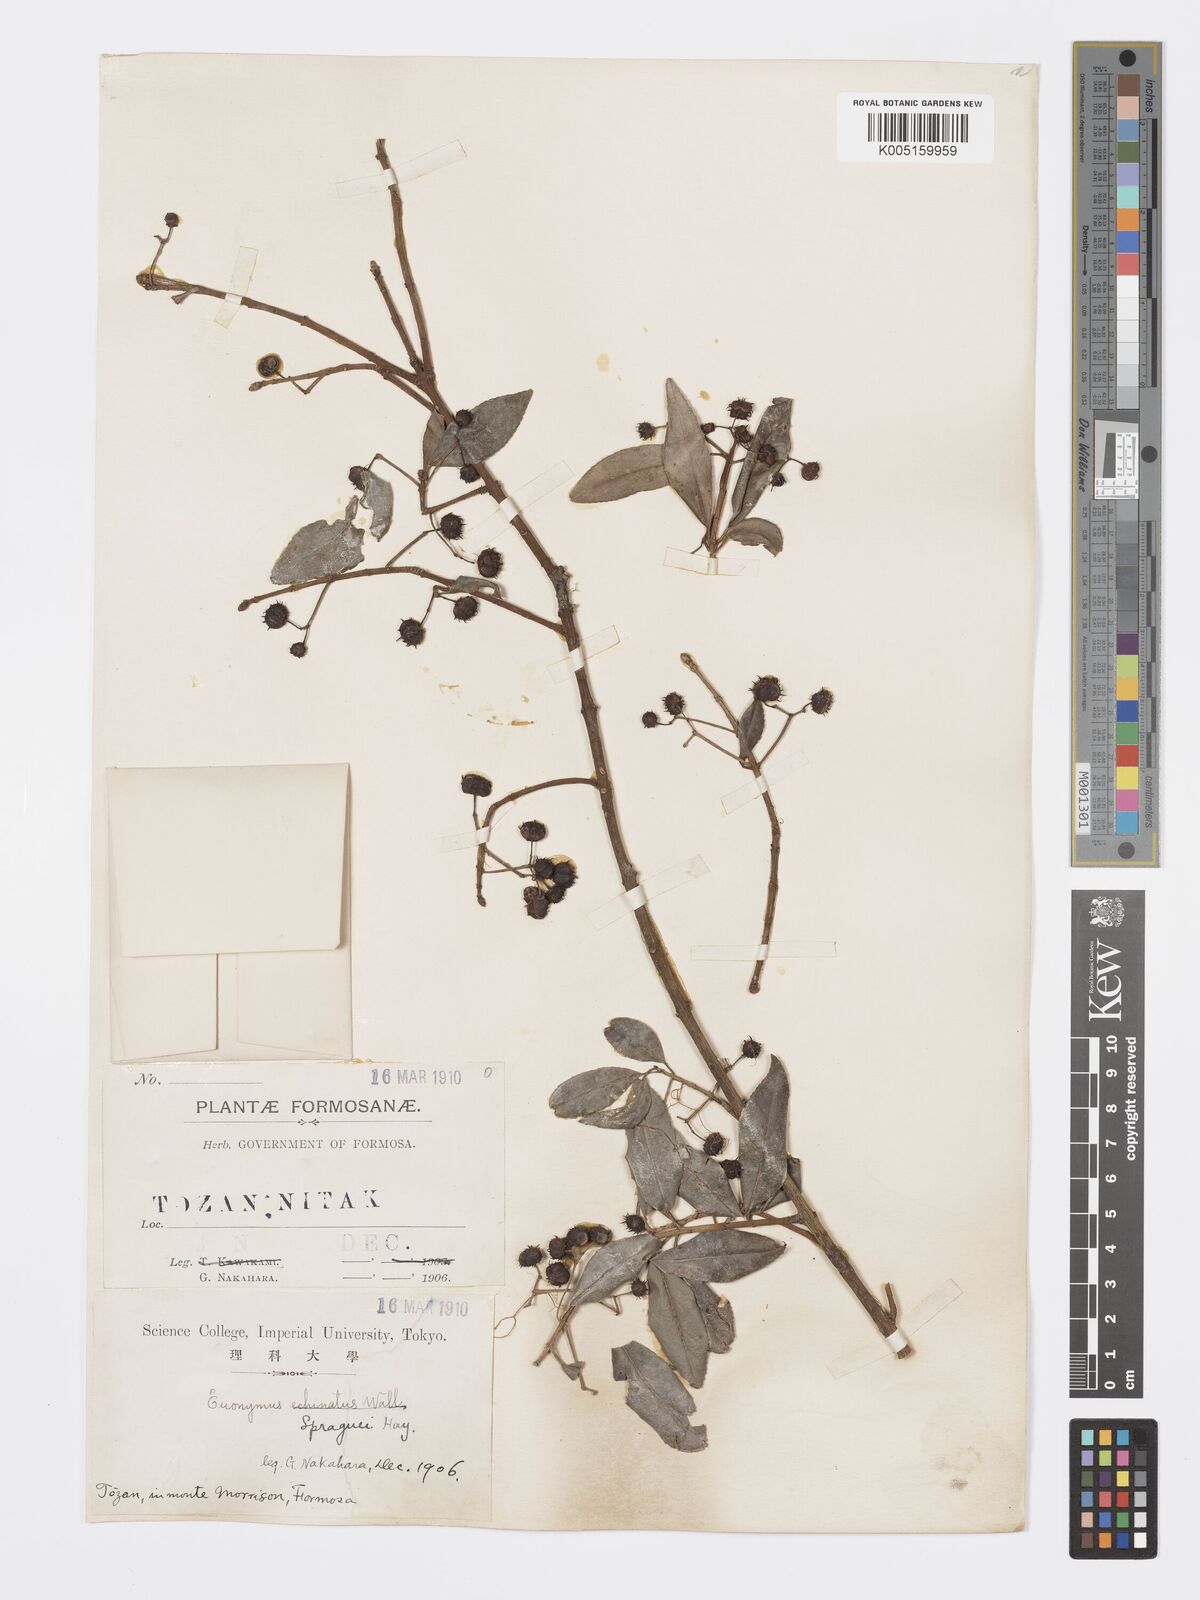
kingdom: Plantae
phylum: Tracheophyta
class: Magnoliopsida
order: Celastrales
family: Celastraceae
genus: Euonymus
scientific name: Euonymus spraguei
